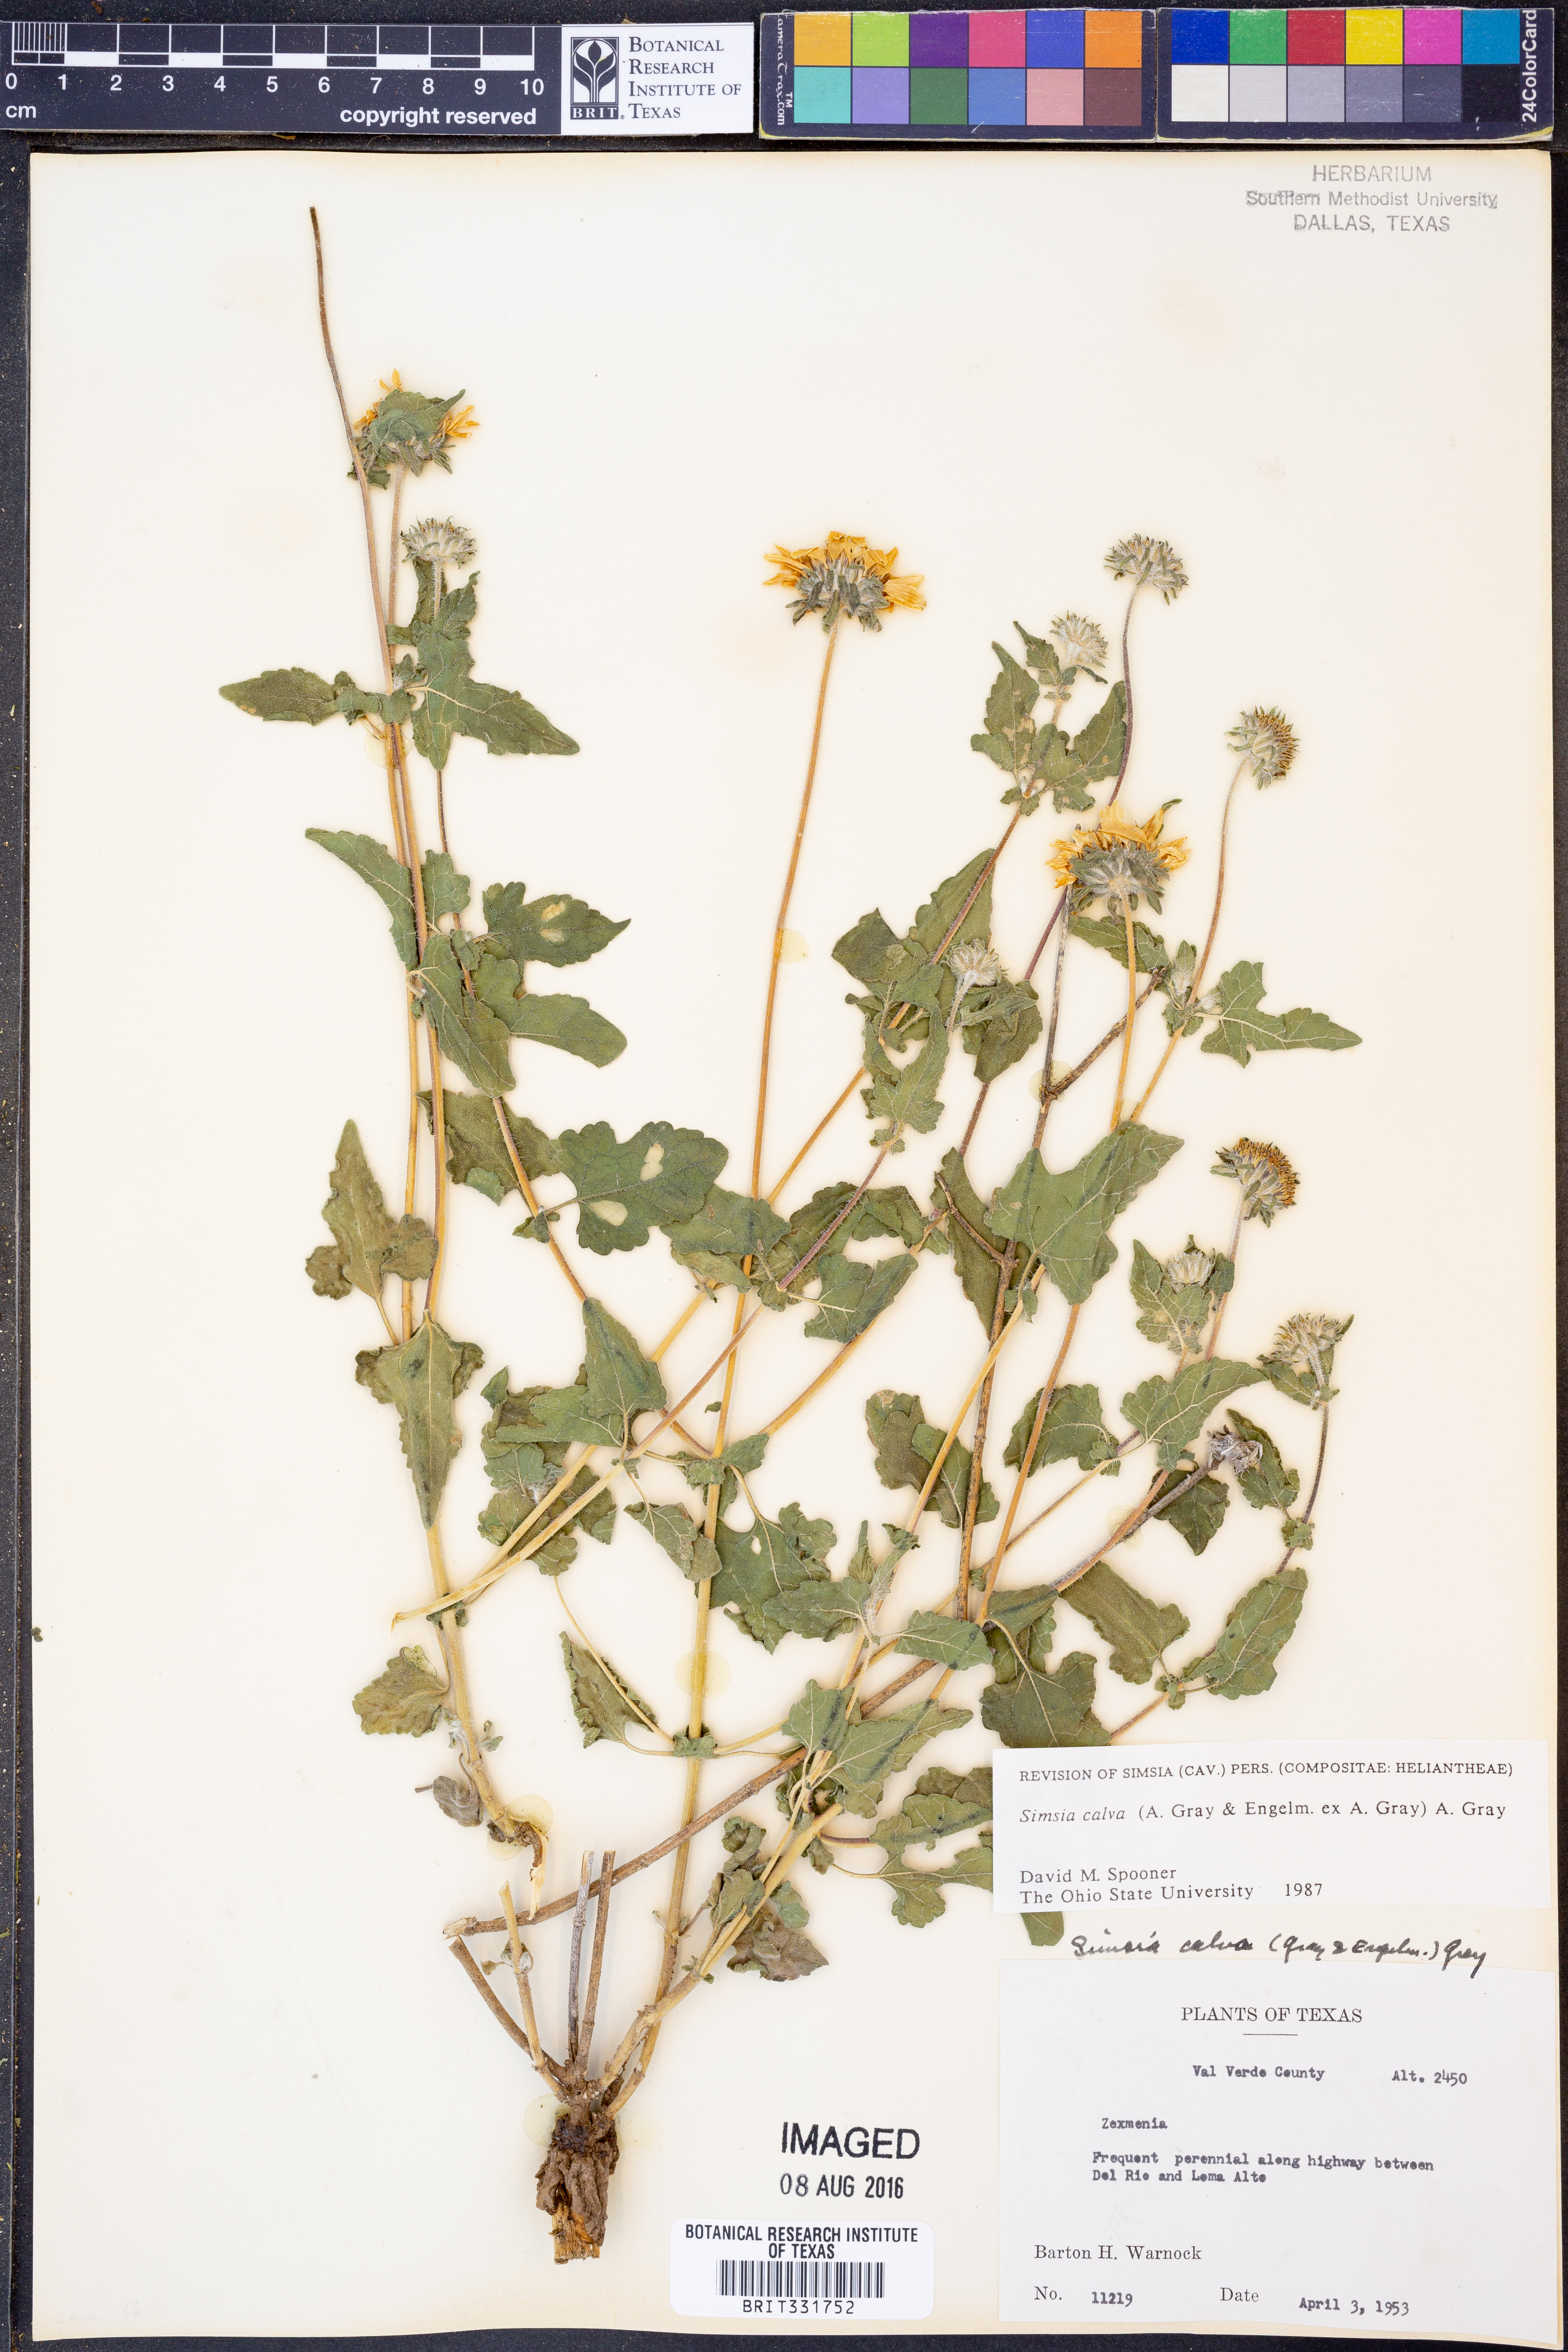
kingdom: Plantae
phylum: Tracheophyta
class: Magnoliopsida
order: Asterales
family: Asteraceae
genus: Simsia
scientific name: Simsia calva
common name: Awnless bush-sunflower
